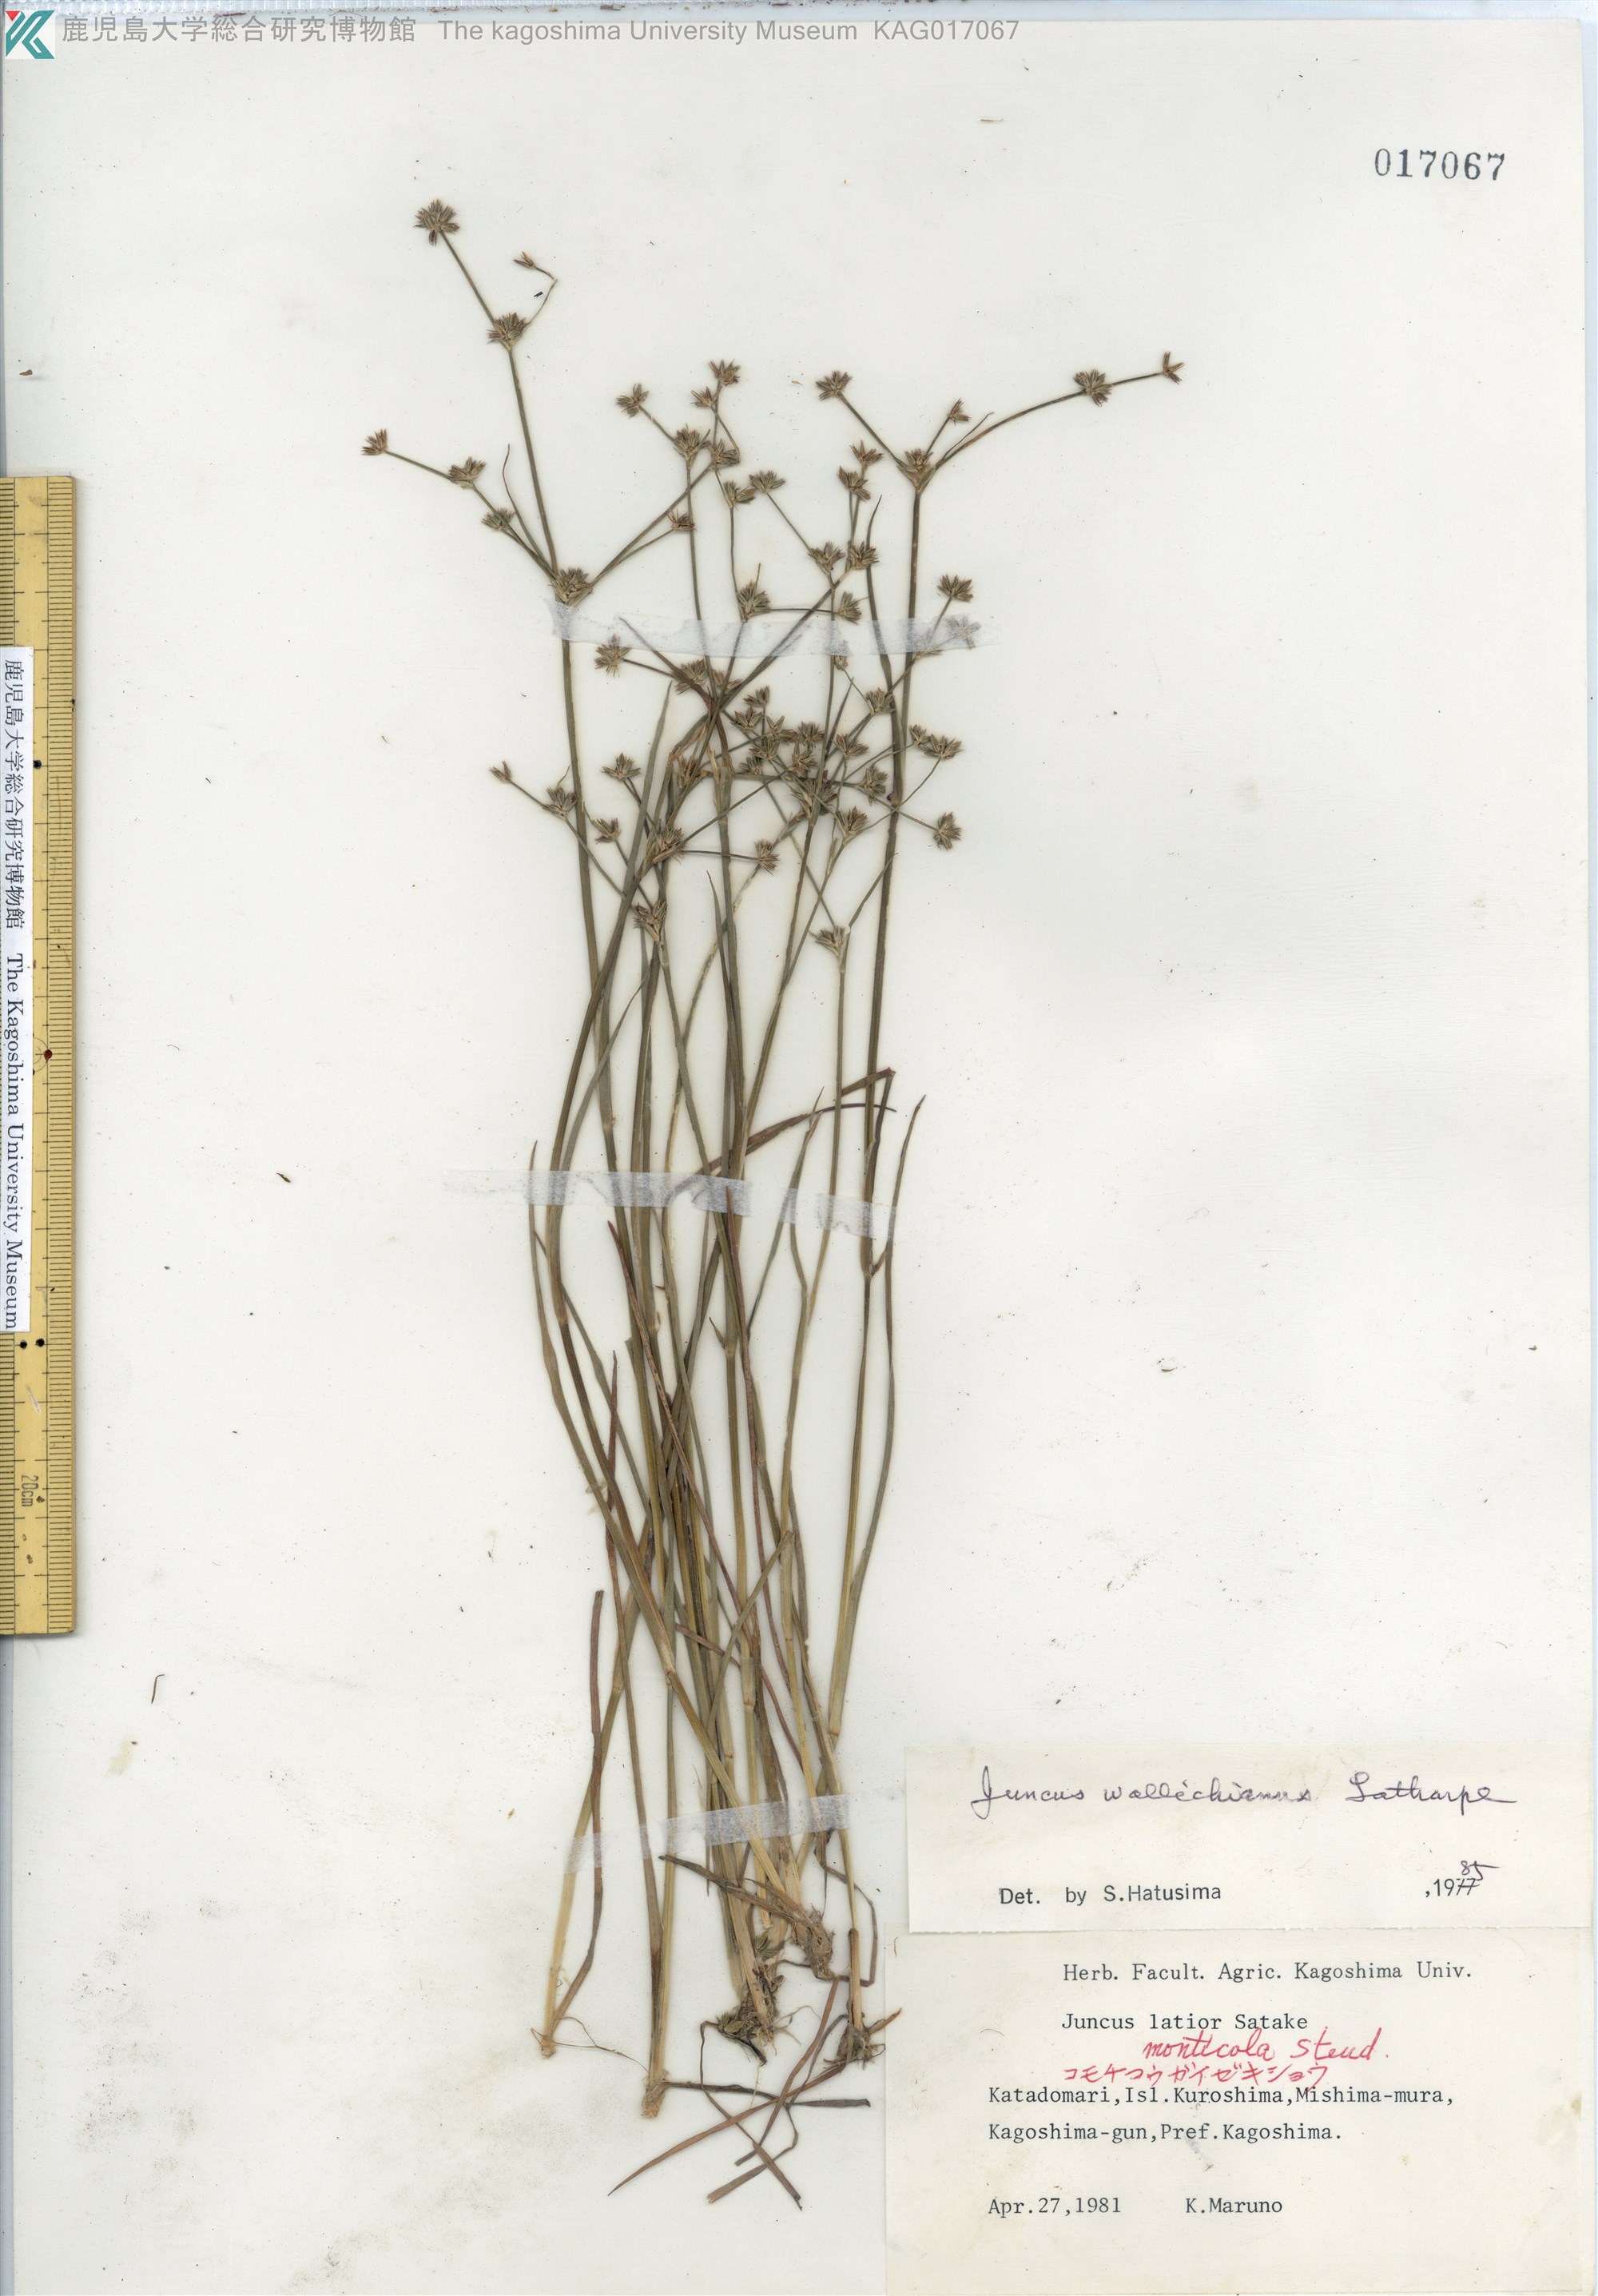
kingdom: Plantae
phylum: Tracheophyta
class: Liliopsida
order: Poales
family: Juncaceae
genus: Juncus
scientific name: Juncus prismatocarpus
